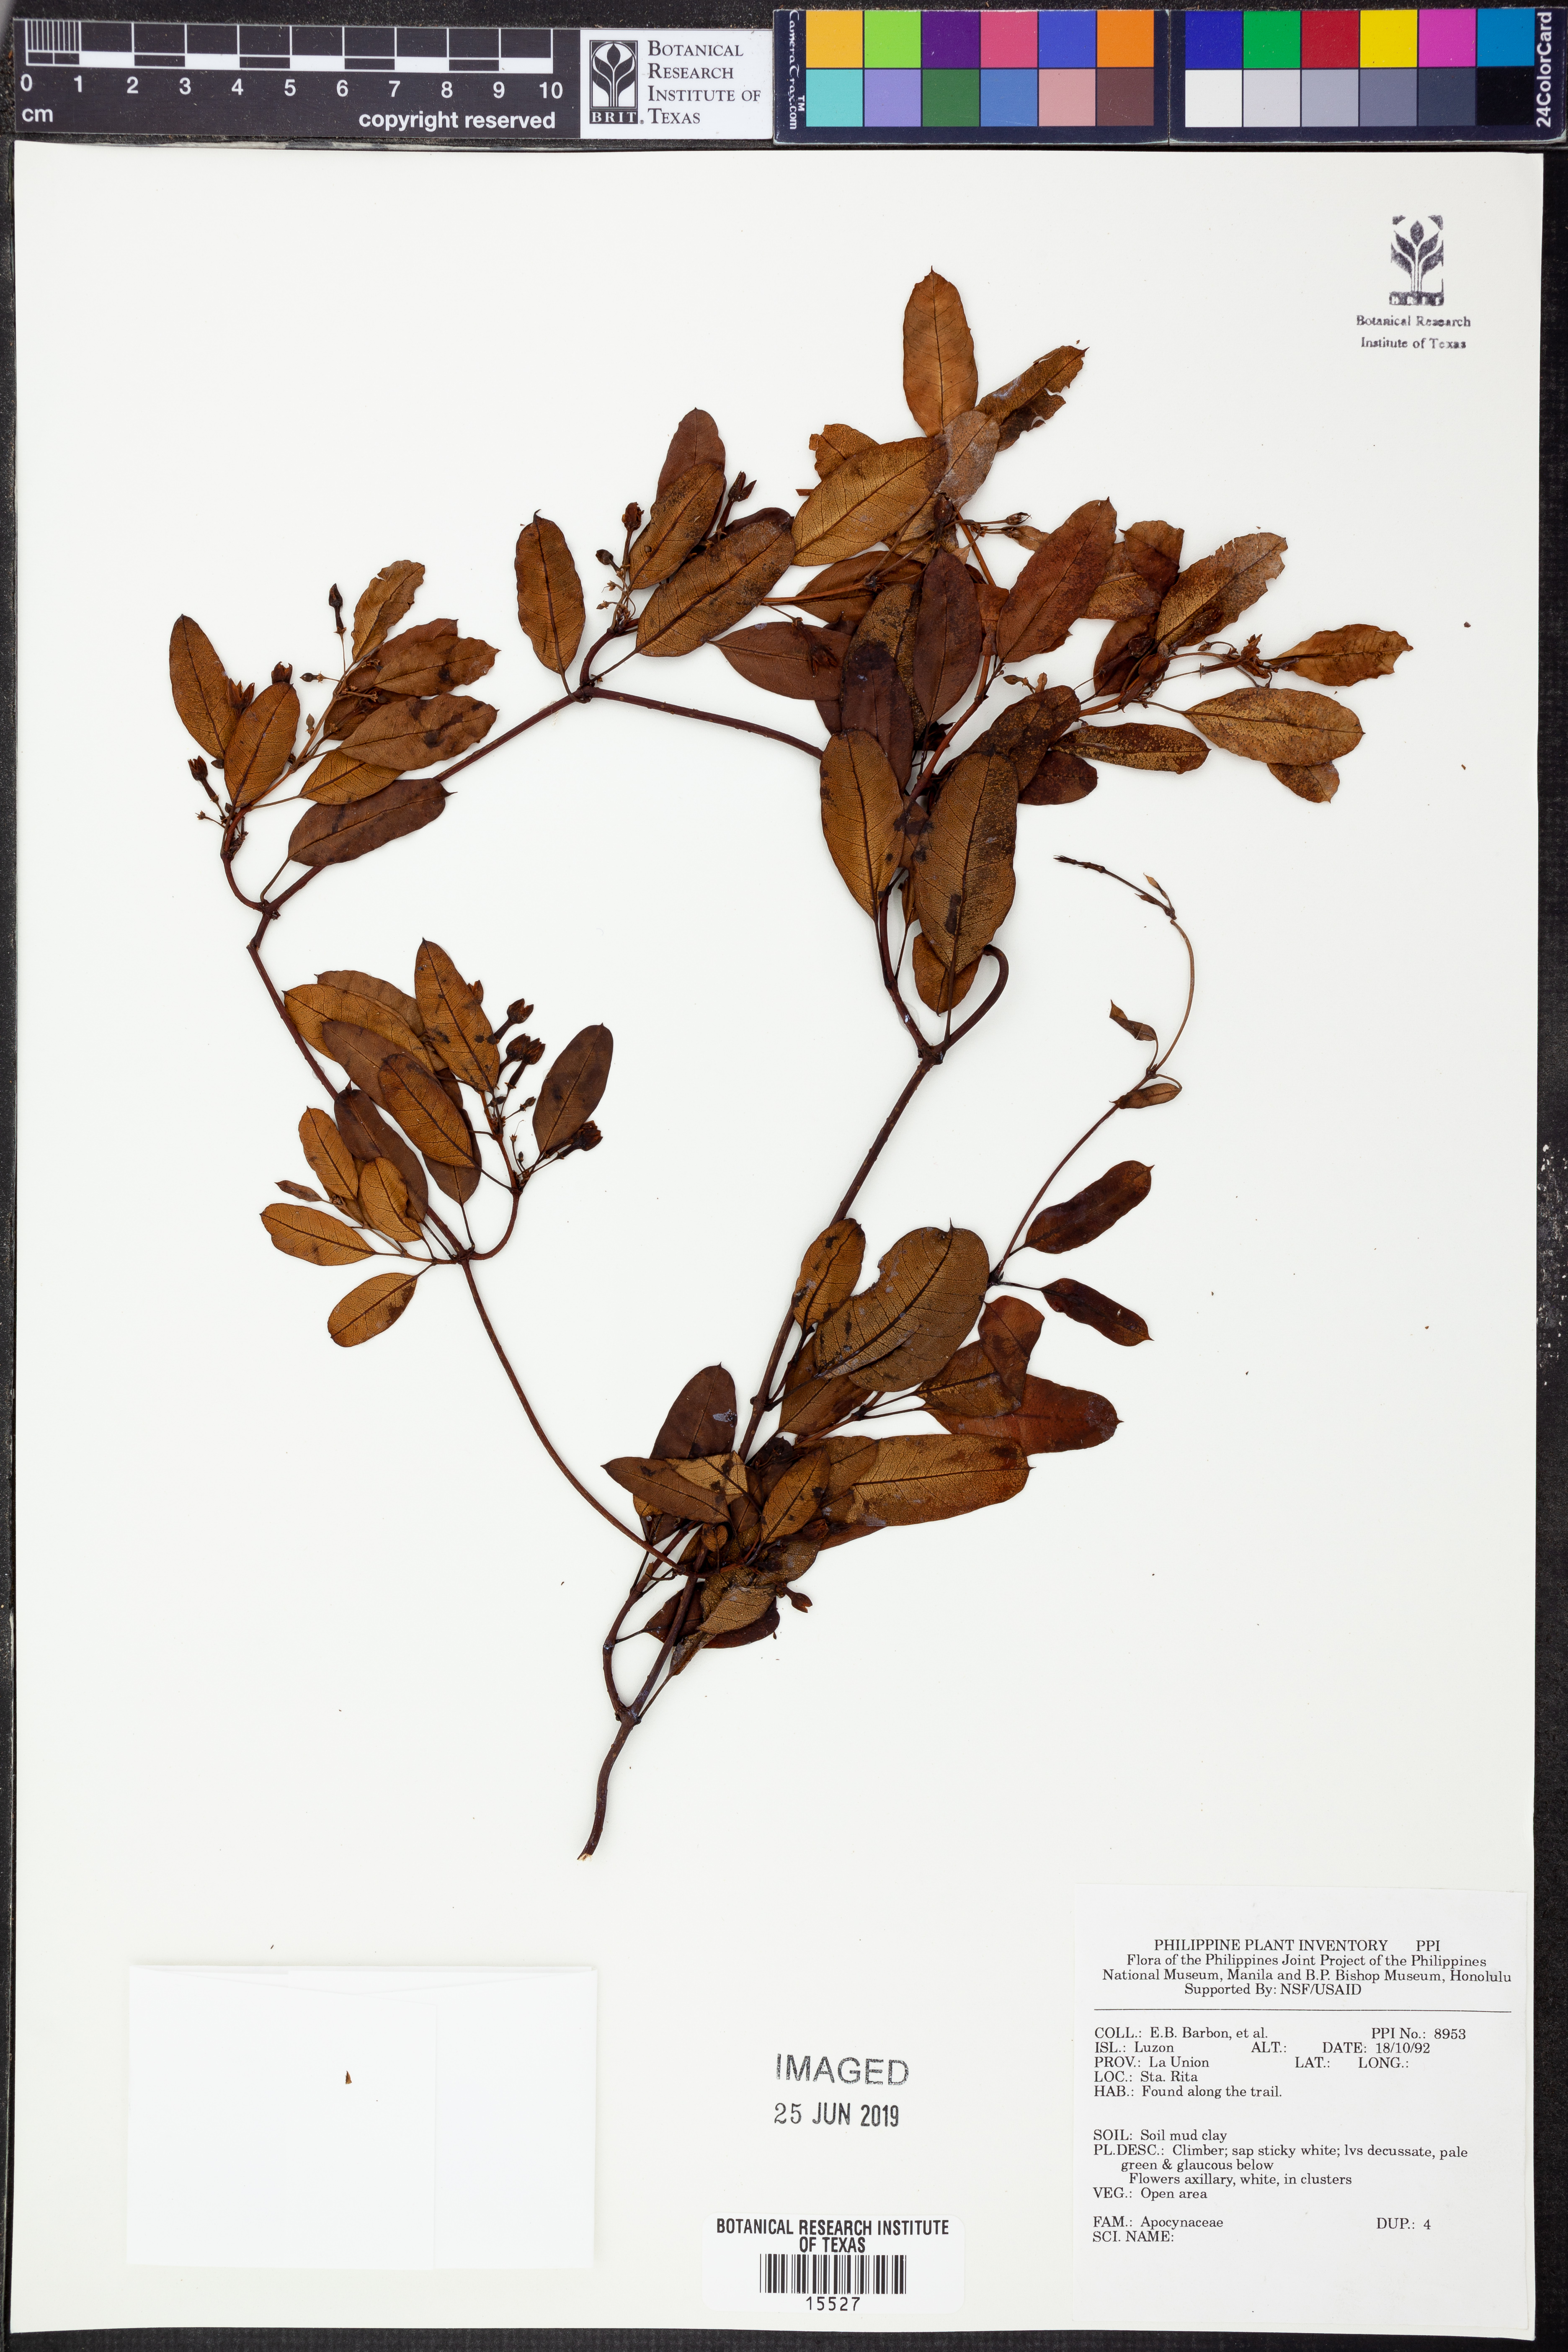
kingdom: Plantae
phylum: Tracheophyta
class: Magnoliopsida
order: Gentianales
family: Apocynaceae
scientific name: Apocynaceae
